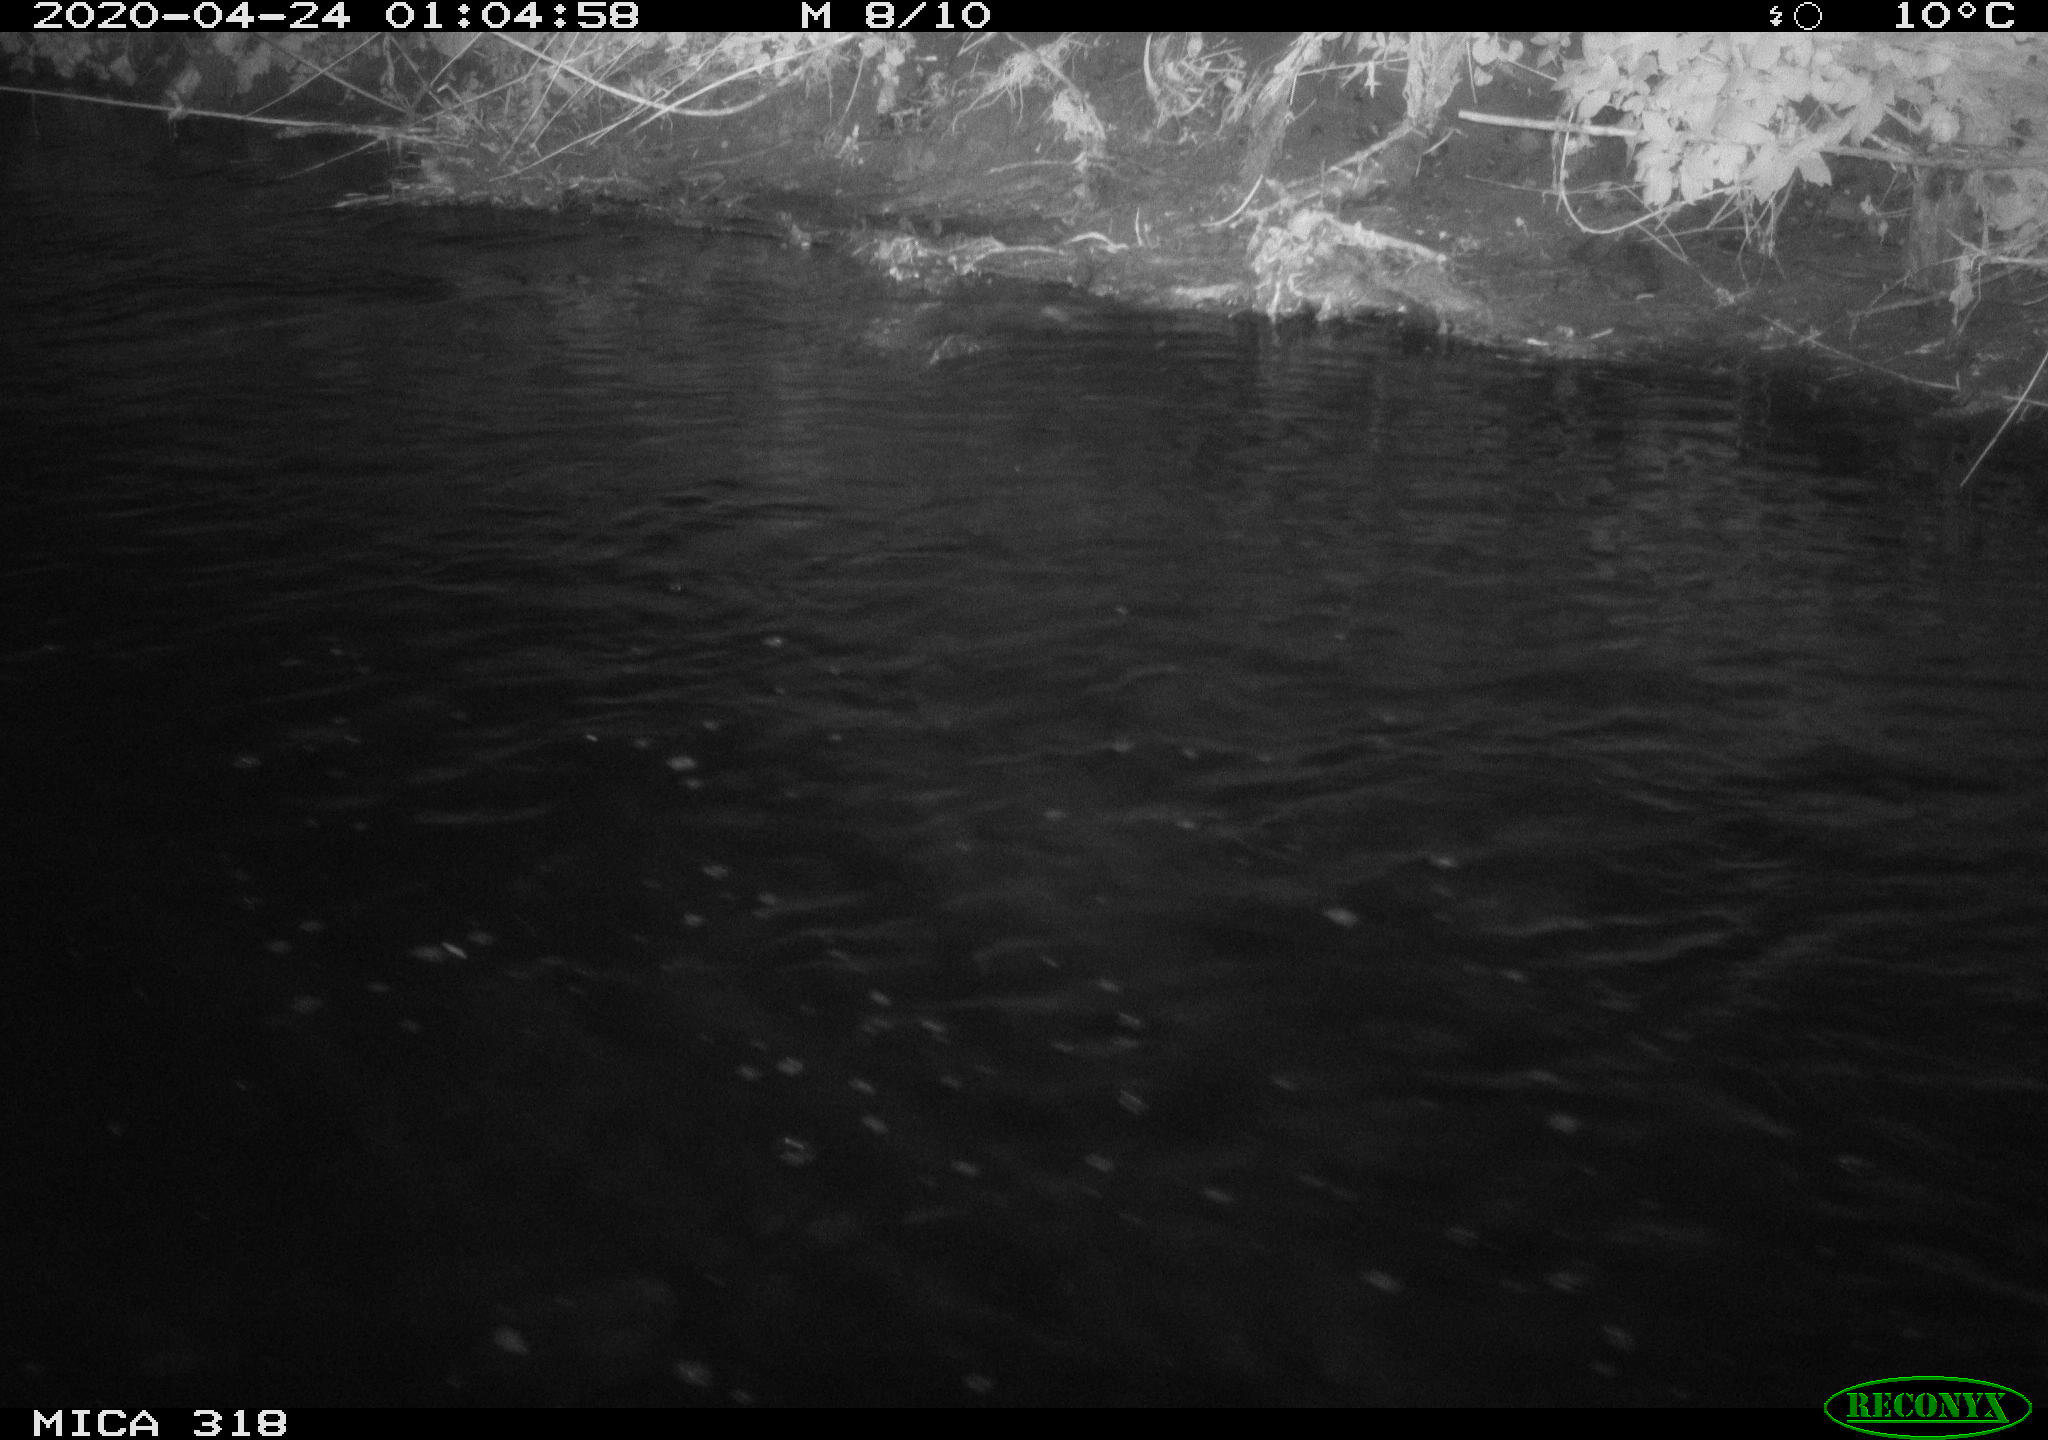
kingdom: Animalia
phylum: Chordata
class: Aves
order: Anseriformes
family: Anatidae
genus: Anas
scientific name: Anas platyrhynchos
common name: Mallard
